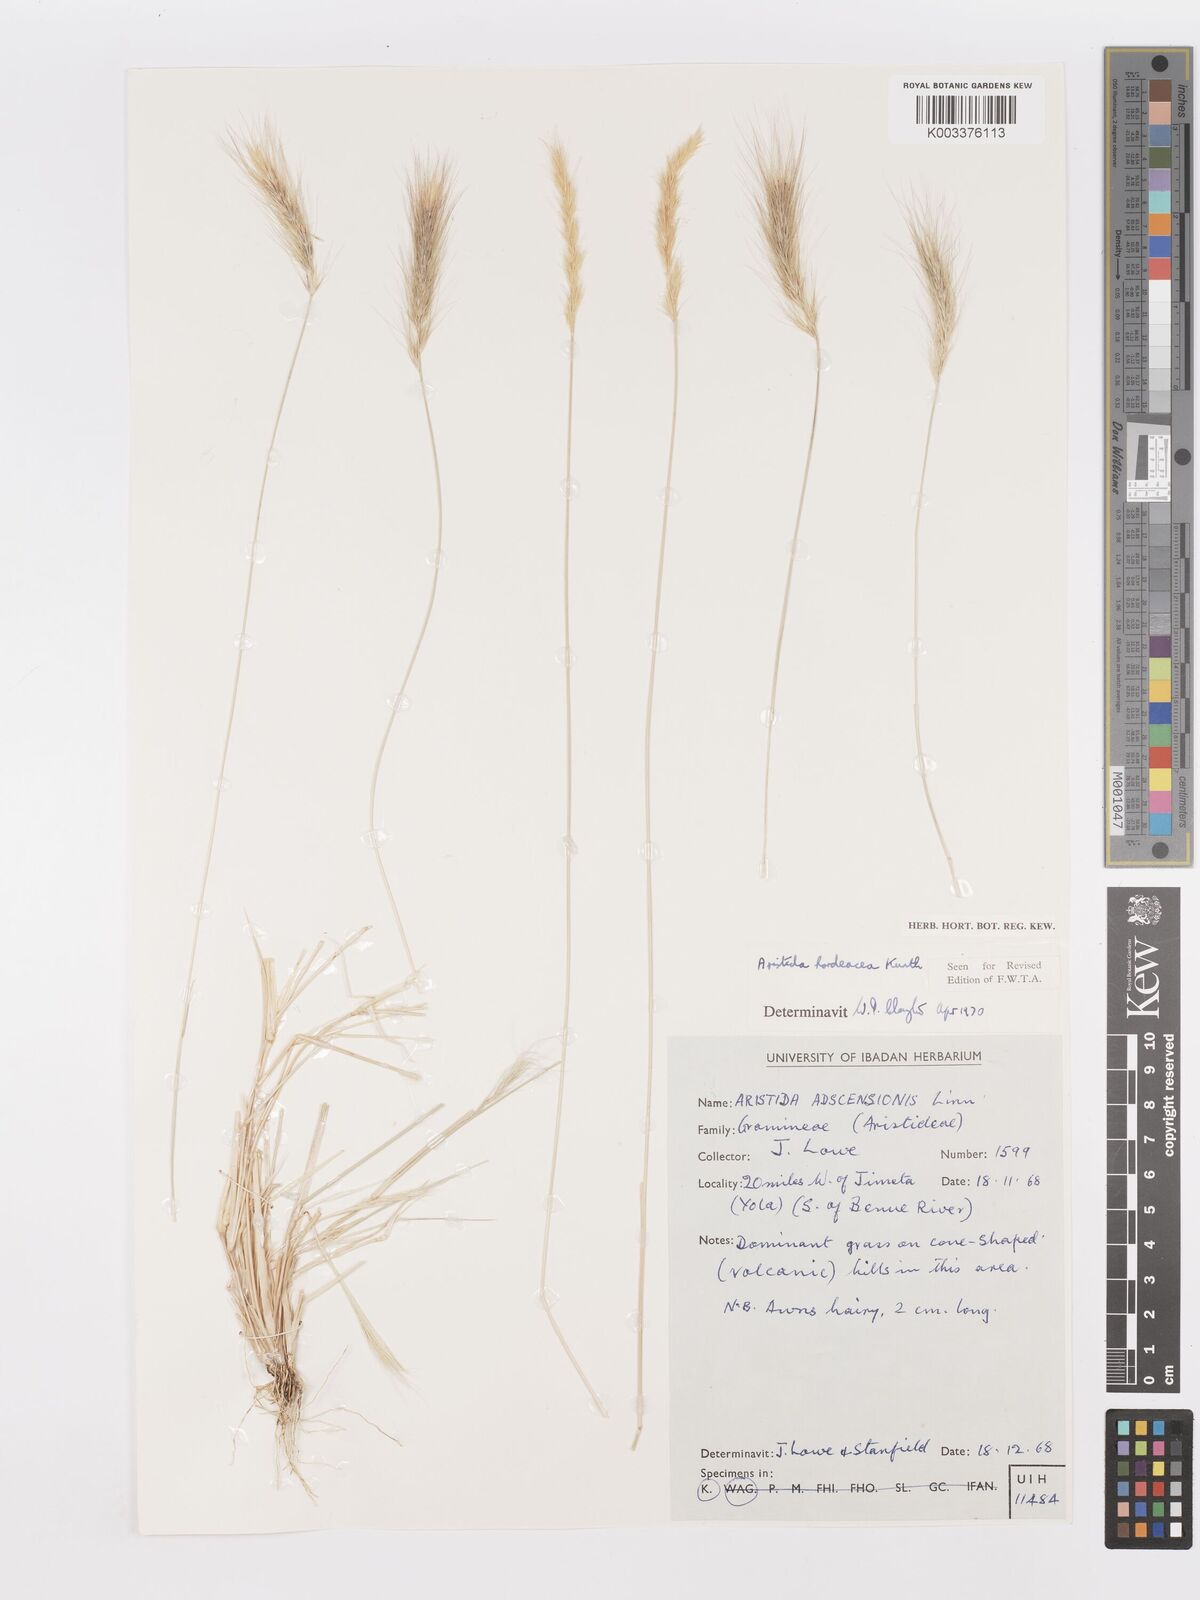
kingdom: Plantae
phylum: Tracheophyta
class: Liliopsida
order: Poales
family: Poaceae
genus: Aristida
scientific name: Aristida hordeacea
